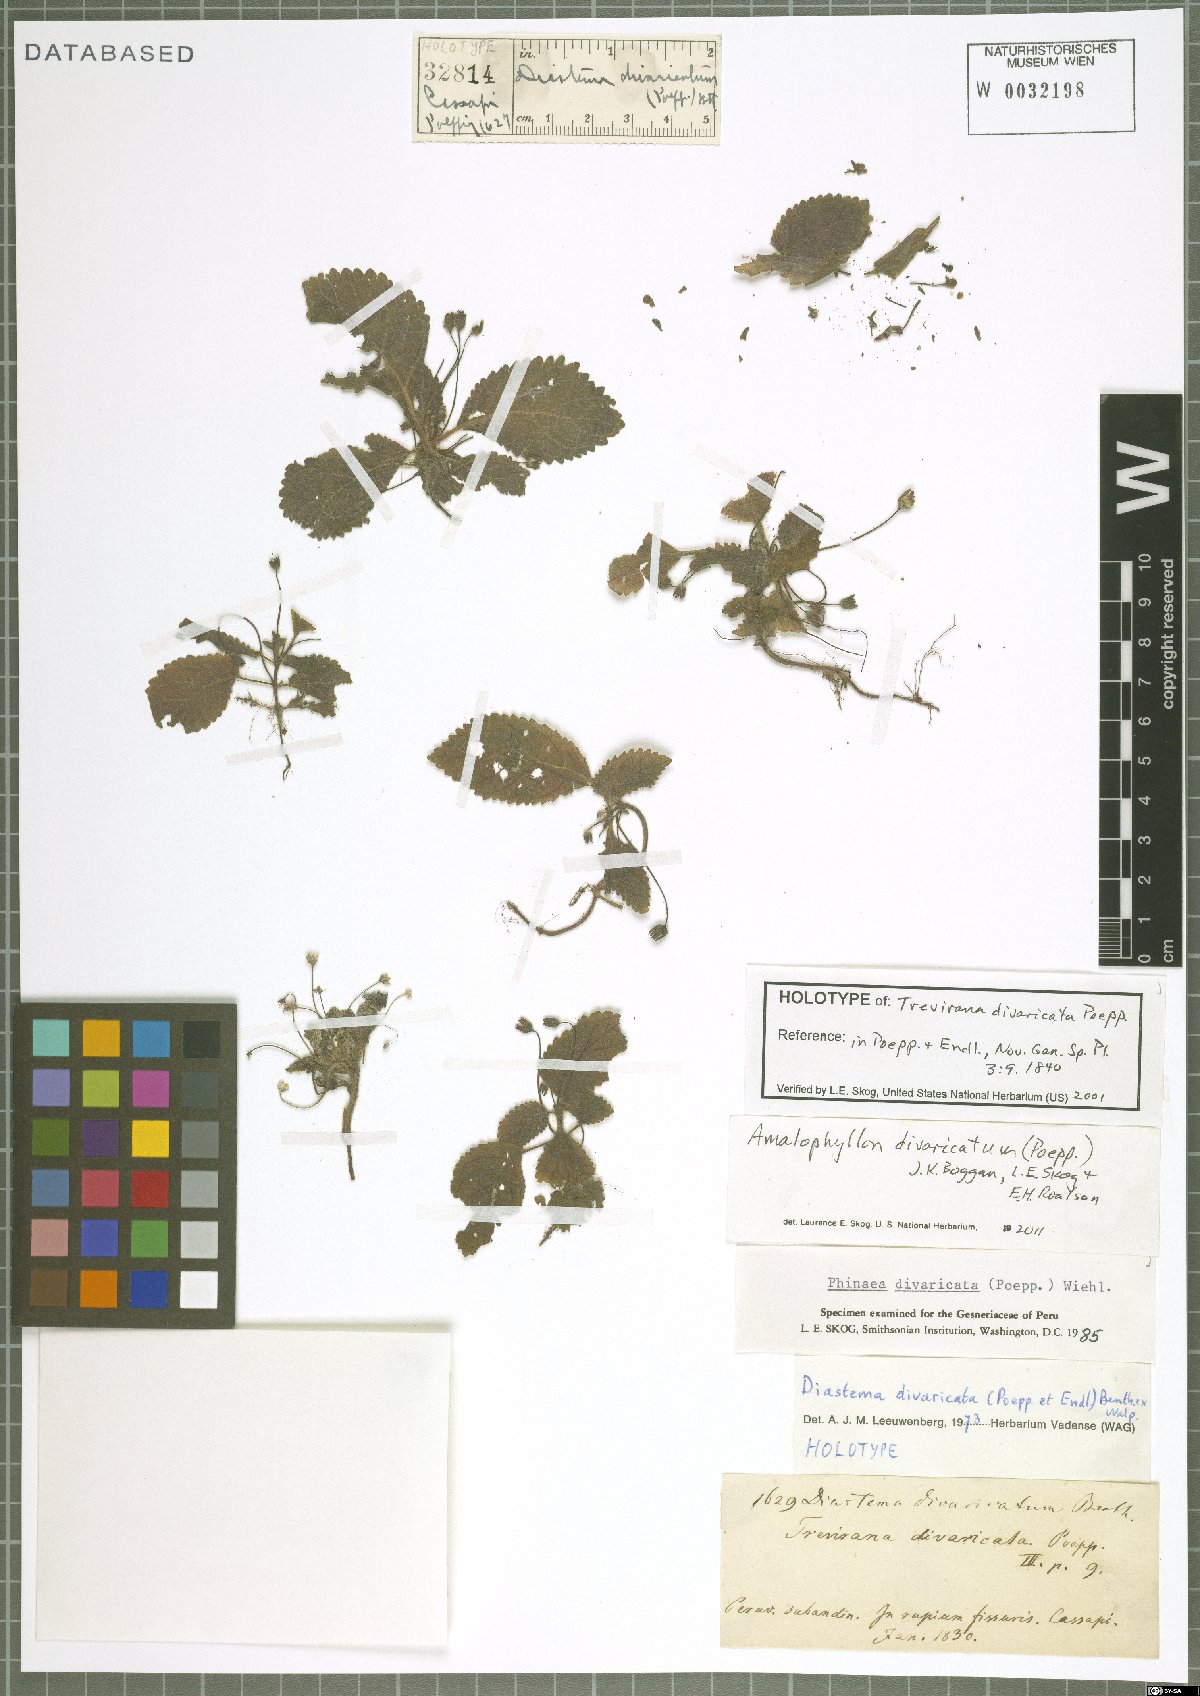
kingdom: Plantae
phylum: Tracheophyta
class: Magnoliopsida
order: Lamiales
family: Gesneriaceae
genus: Amalophyllon
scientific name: Amalophyllon divaricatum
